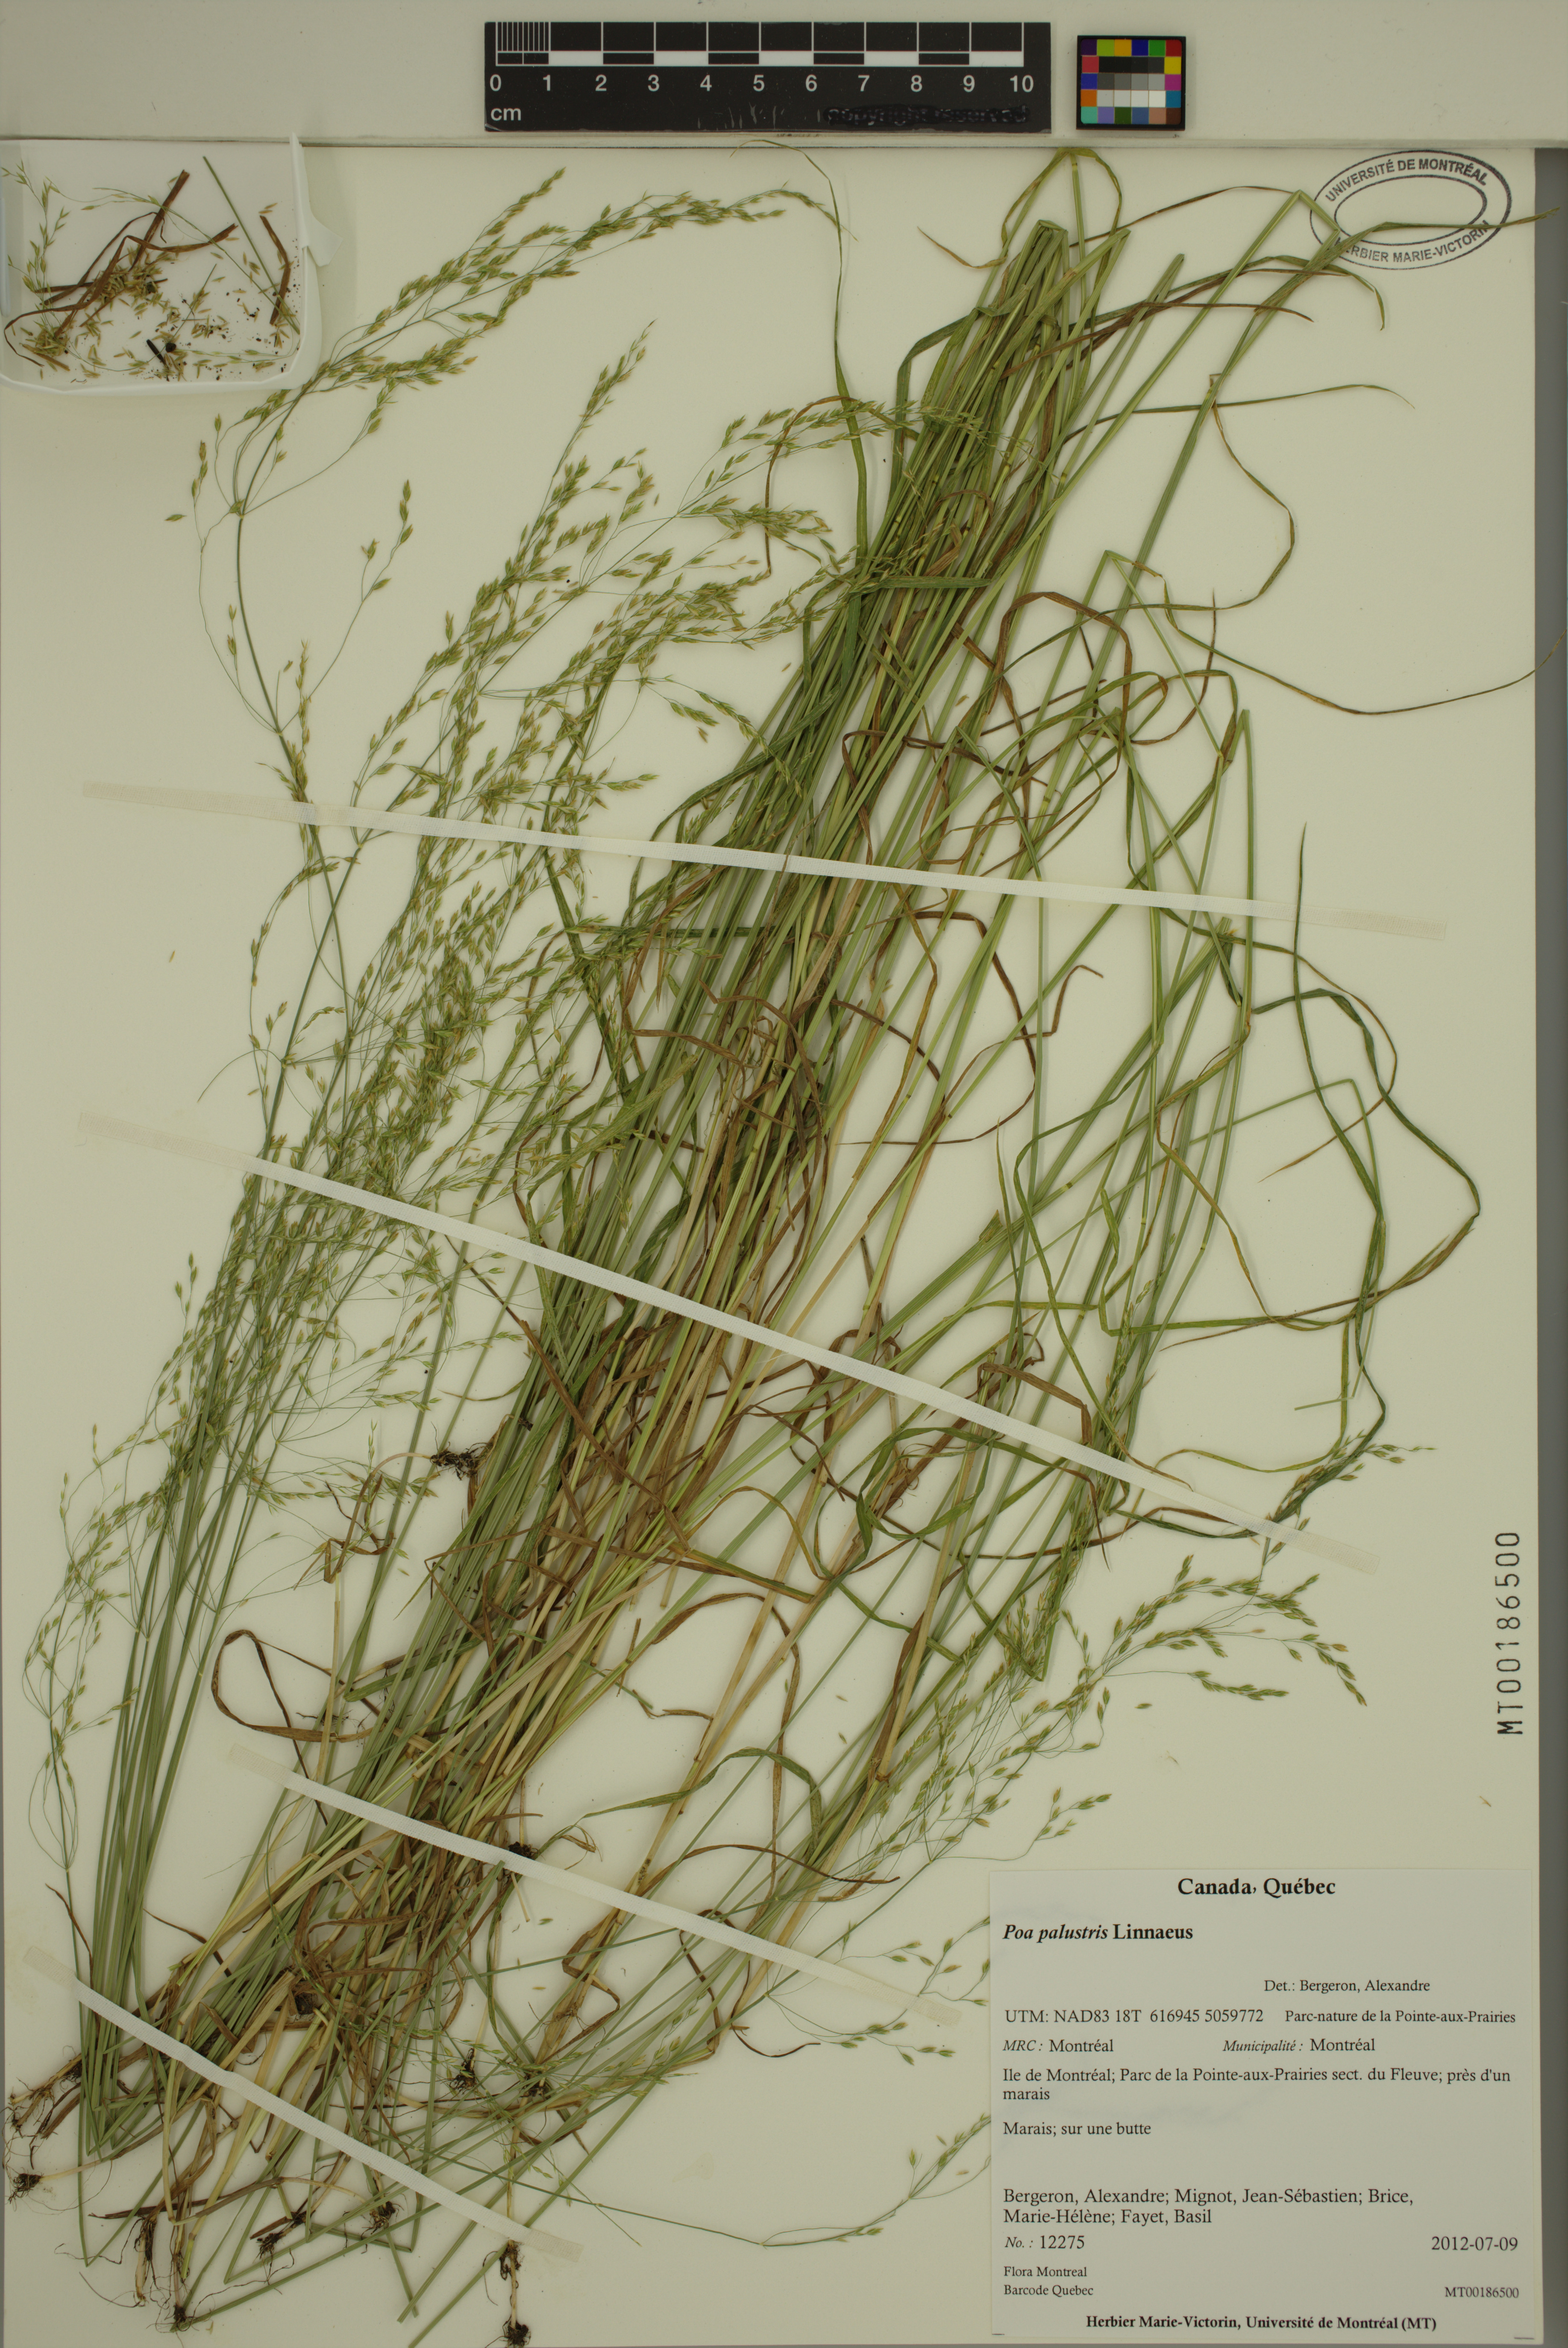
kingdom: Plantae
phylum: Tracheophyta
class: Liliopsida
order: Poales
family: Poaceae
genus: Poa
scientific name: Poa palustris
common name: Swamp meadow-grass
